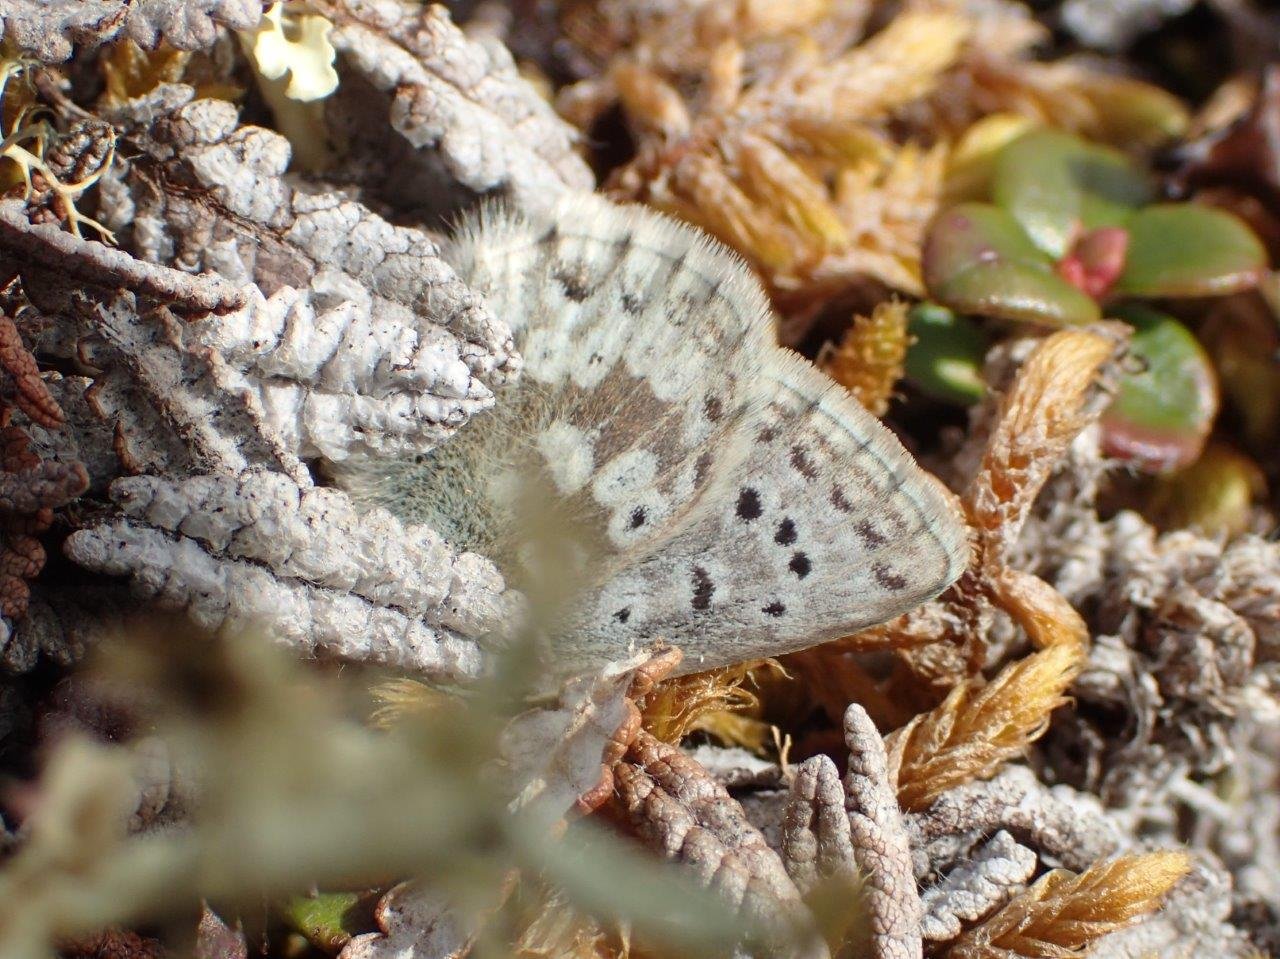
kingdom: Animalia
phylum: Arthropoda
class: Insecta
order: Lepidoptera
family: Lycaenidae
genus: Agriades
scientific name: Agriades glandon
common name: Arctic Blue
